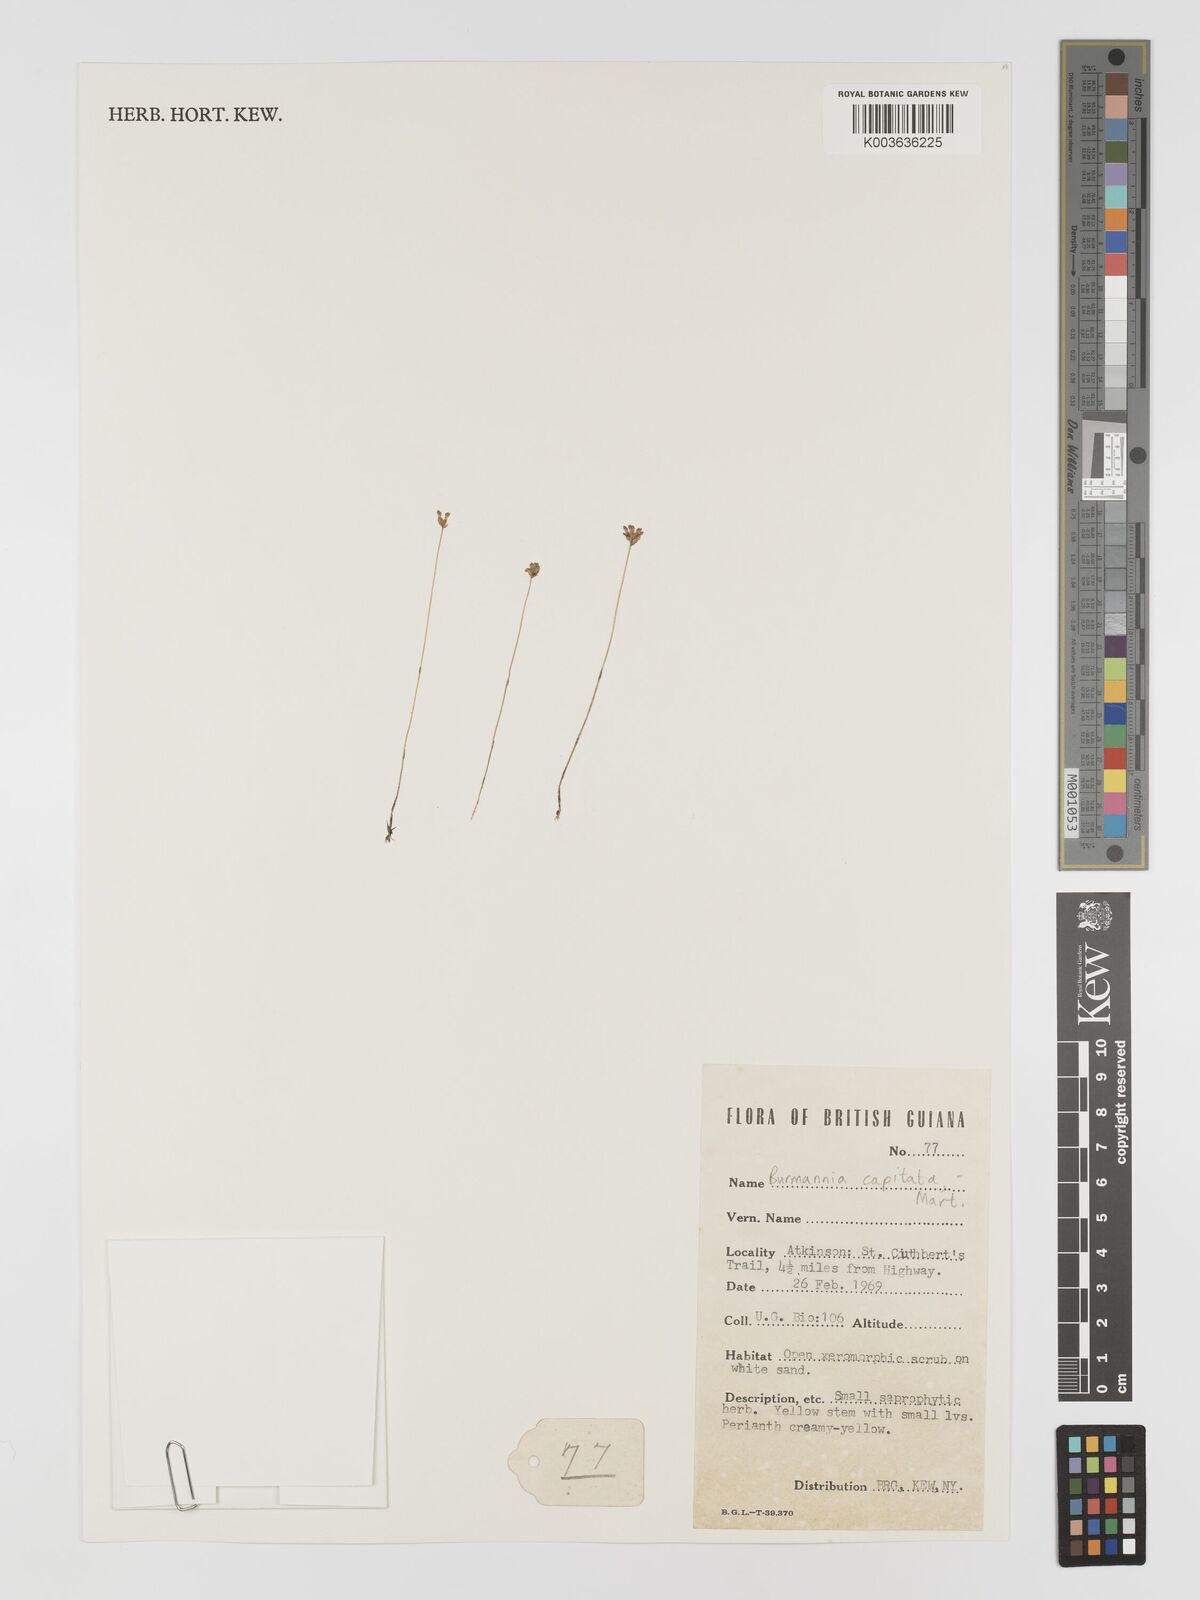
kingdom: Plantae
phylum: Tracheophyta
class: Liliopsida
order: Dioscoreales
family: Burmanniaceae
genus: Burmannia
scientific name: Burmannia capitata
